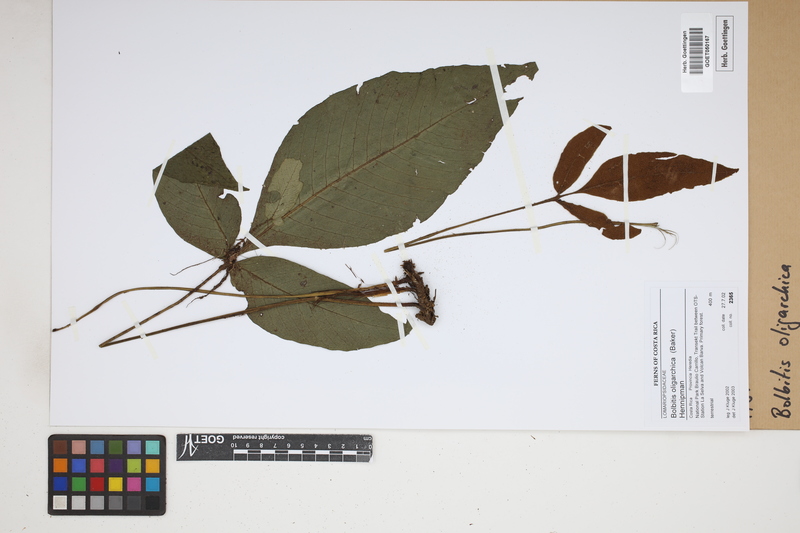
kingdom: Plantae
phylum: Tracheophyta
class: Polypodiopsida
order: Polypodiales
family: Dryopteridaceae
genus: Mickelia
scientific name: Mickelia oligarchica
